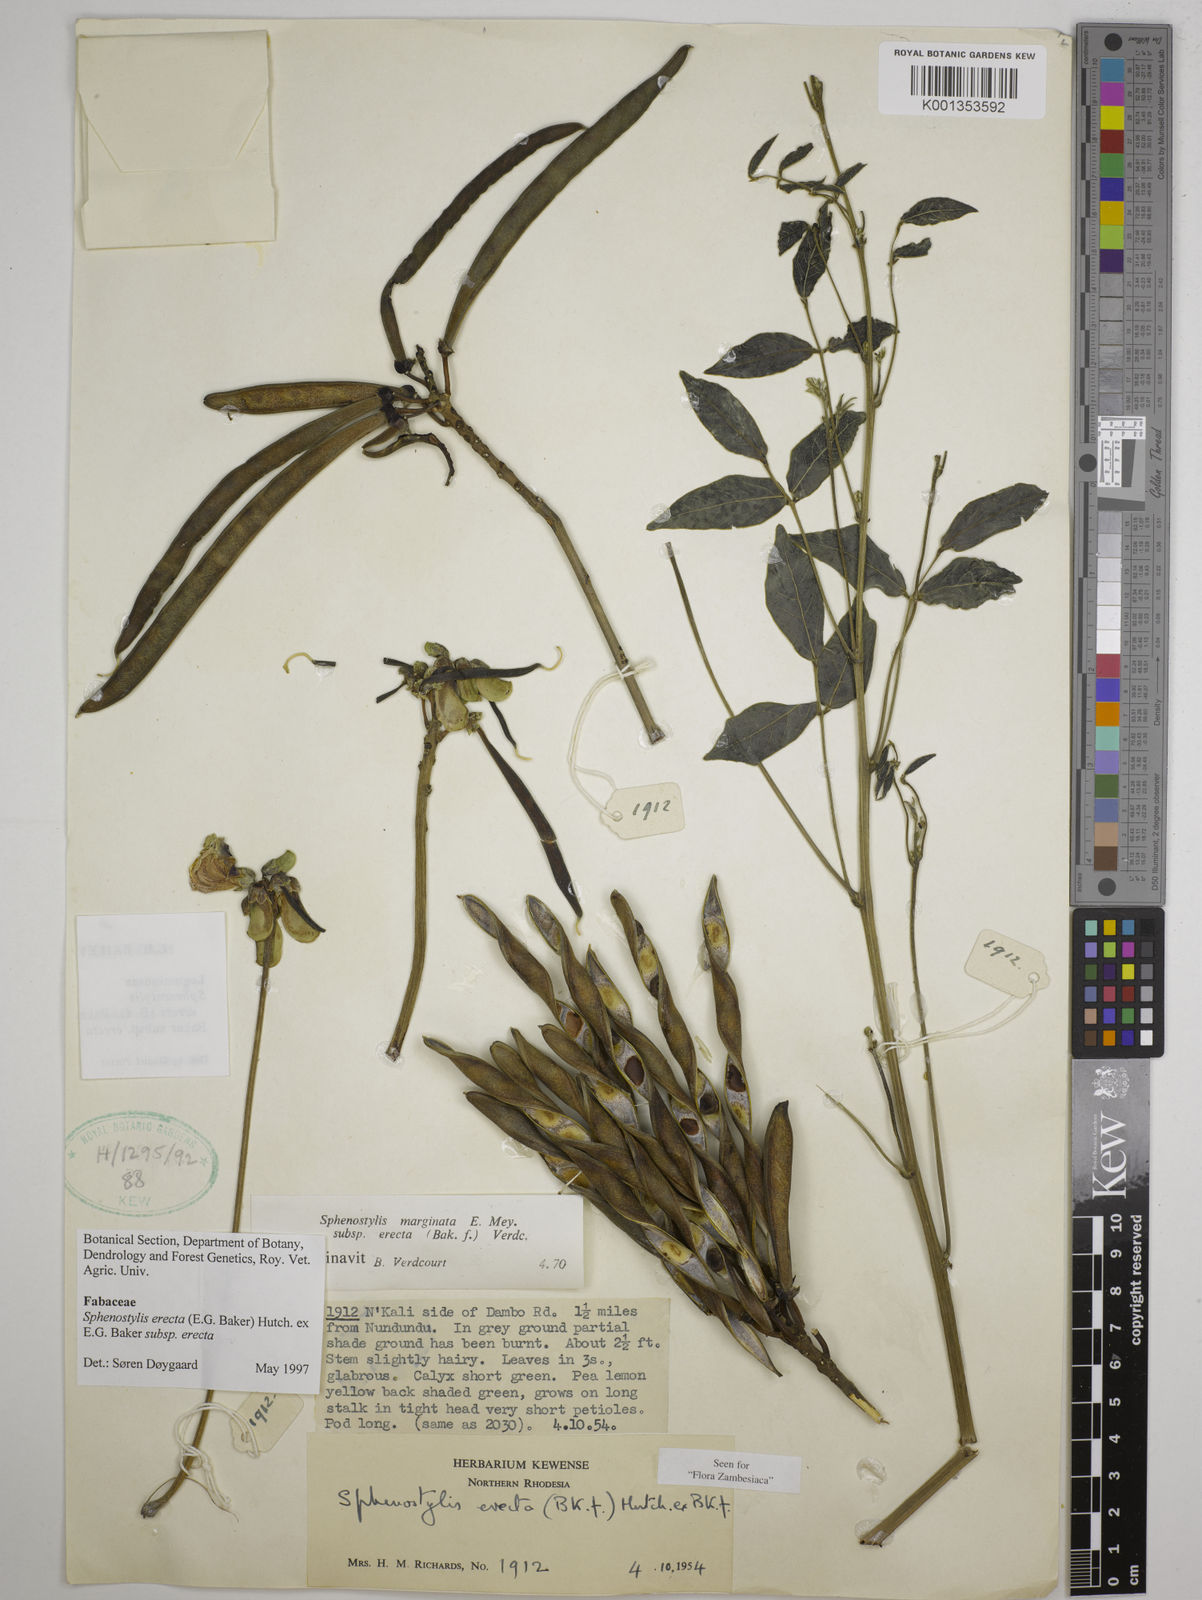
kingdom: Plantae
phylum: Tracheophyta
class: Magnoliopsida
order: Fabales
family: Fabaceae
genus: Sphenostylis
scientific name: Sphenostylis erecta
